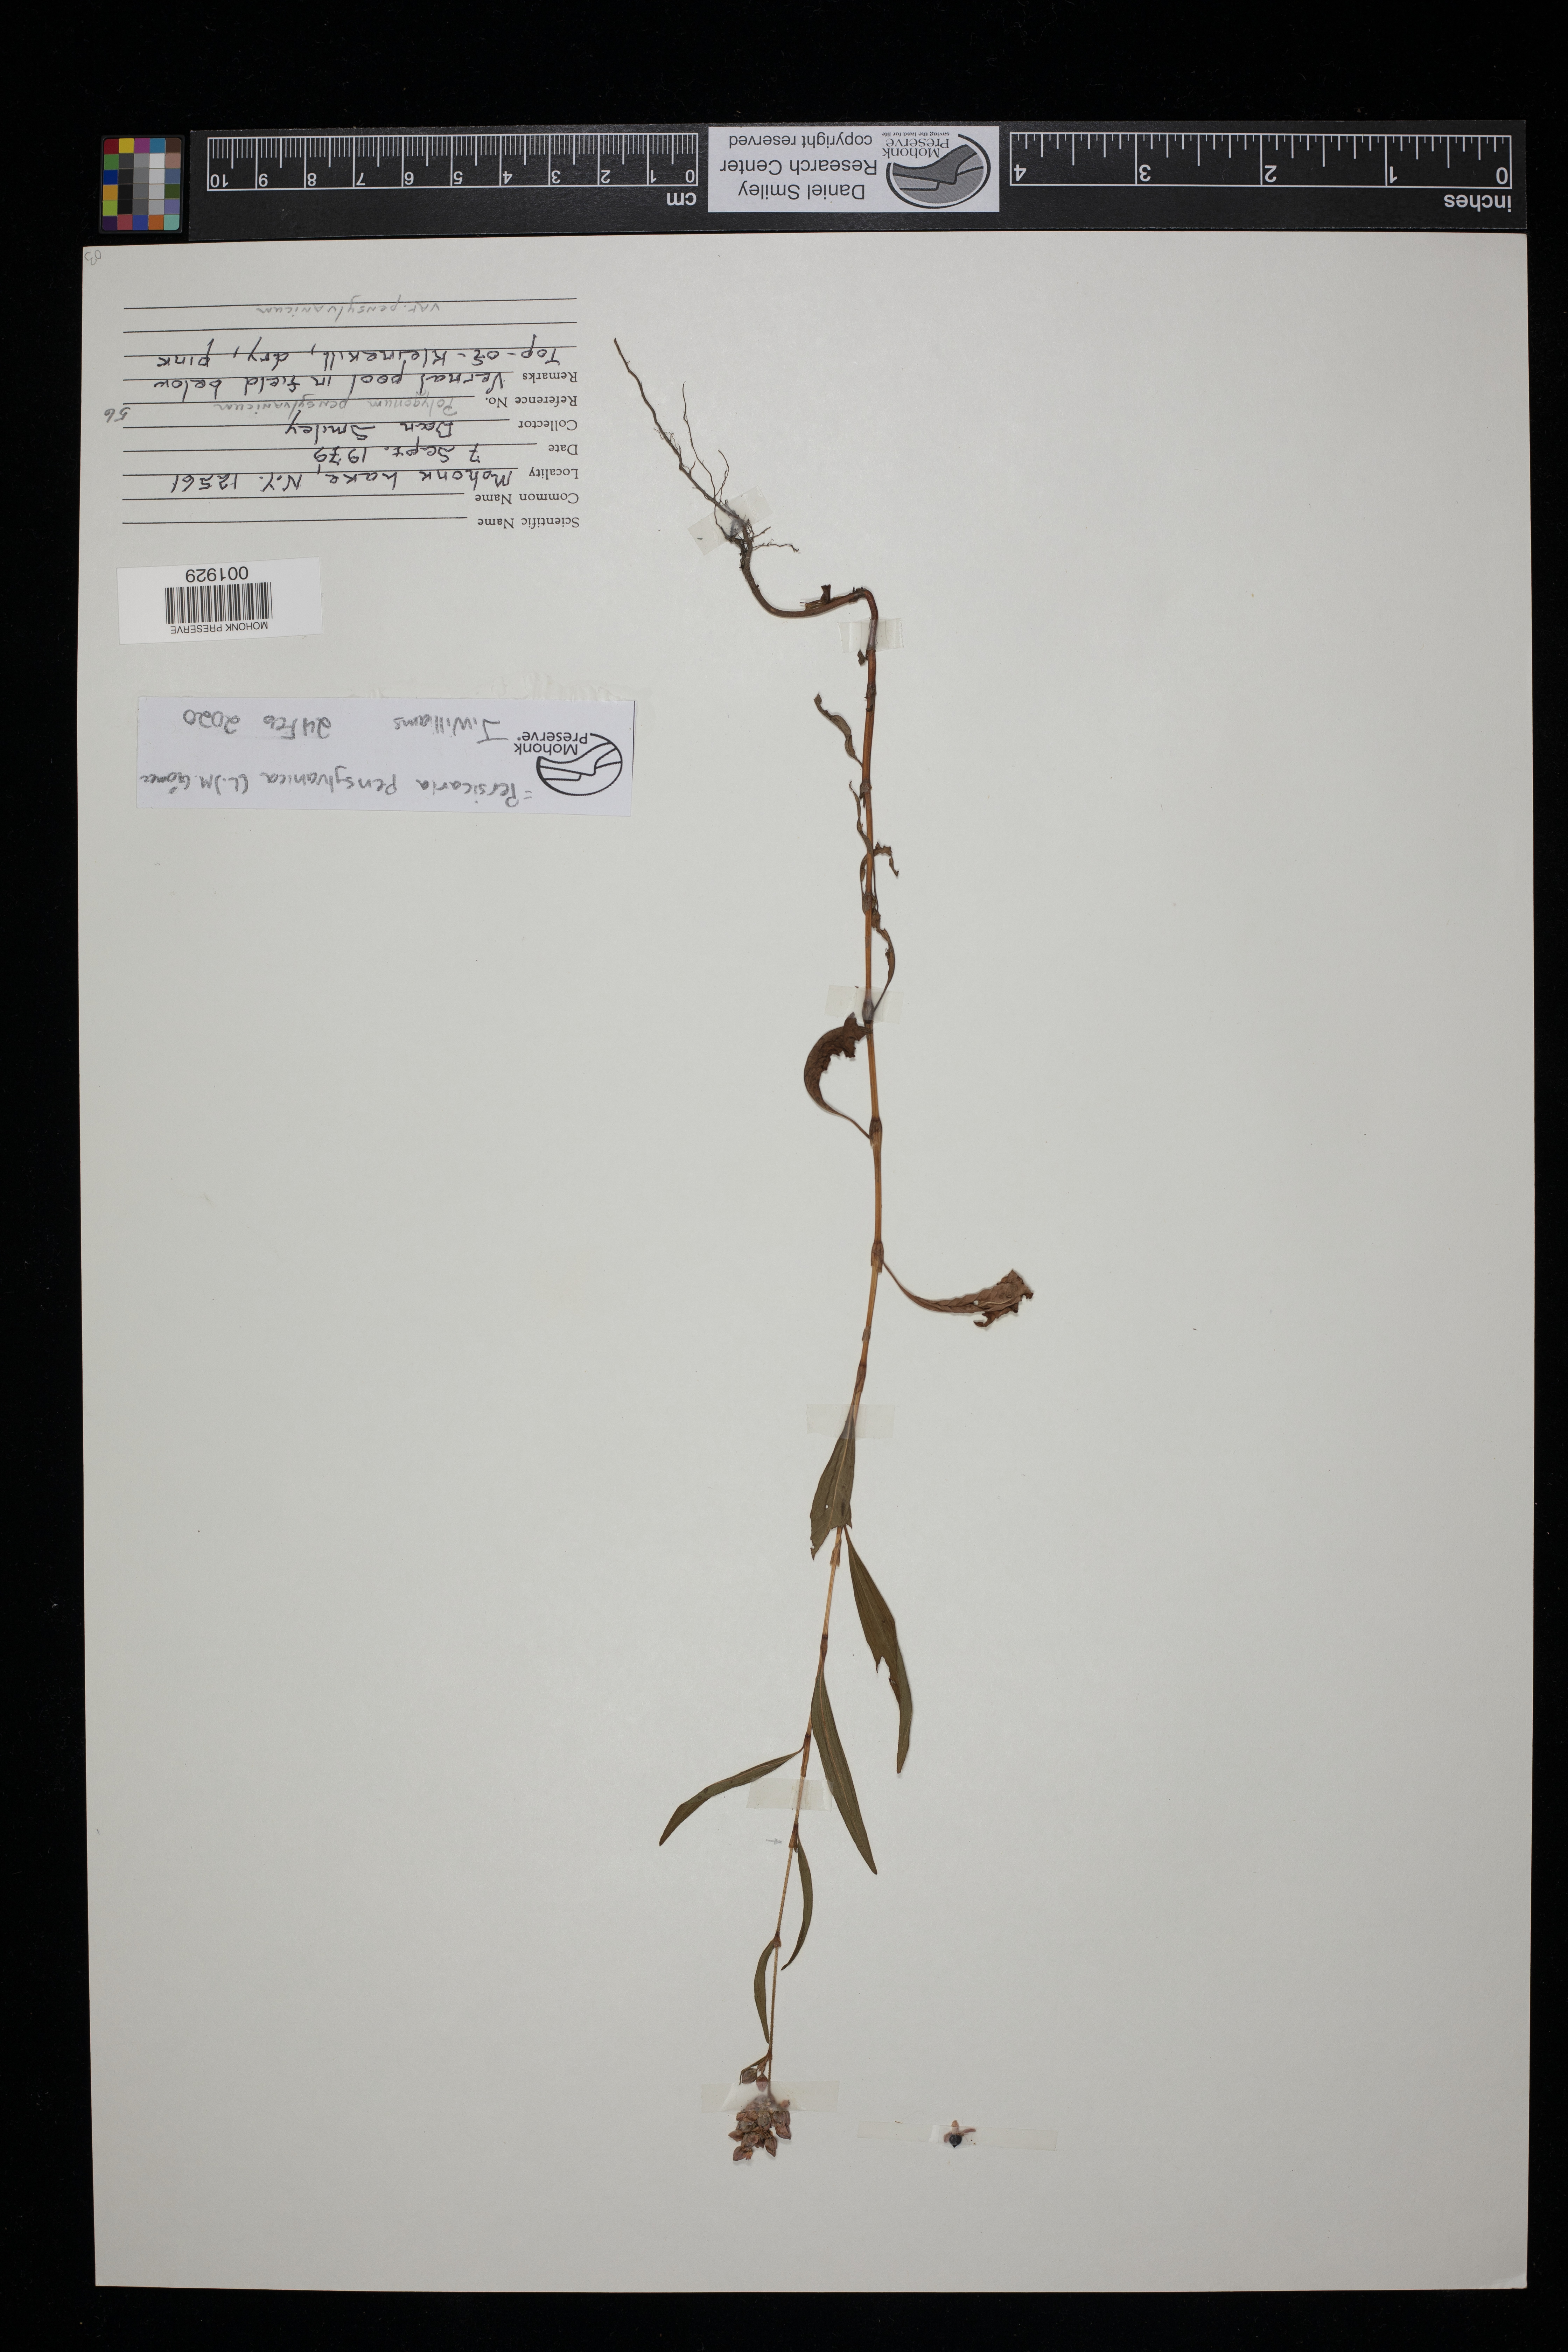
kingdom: Plantae
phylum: Tracheophyta
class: Magnoliopsida
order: Caryophyllales
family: Polygonaceae
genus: Persicaria
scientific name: Persicaria pensylvanica
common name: Pinkweed
